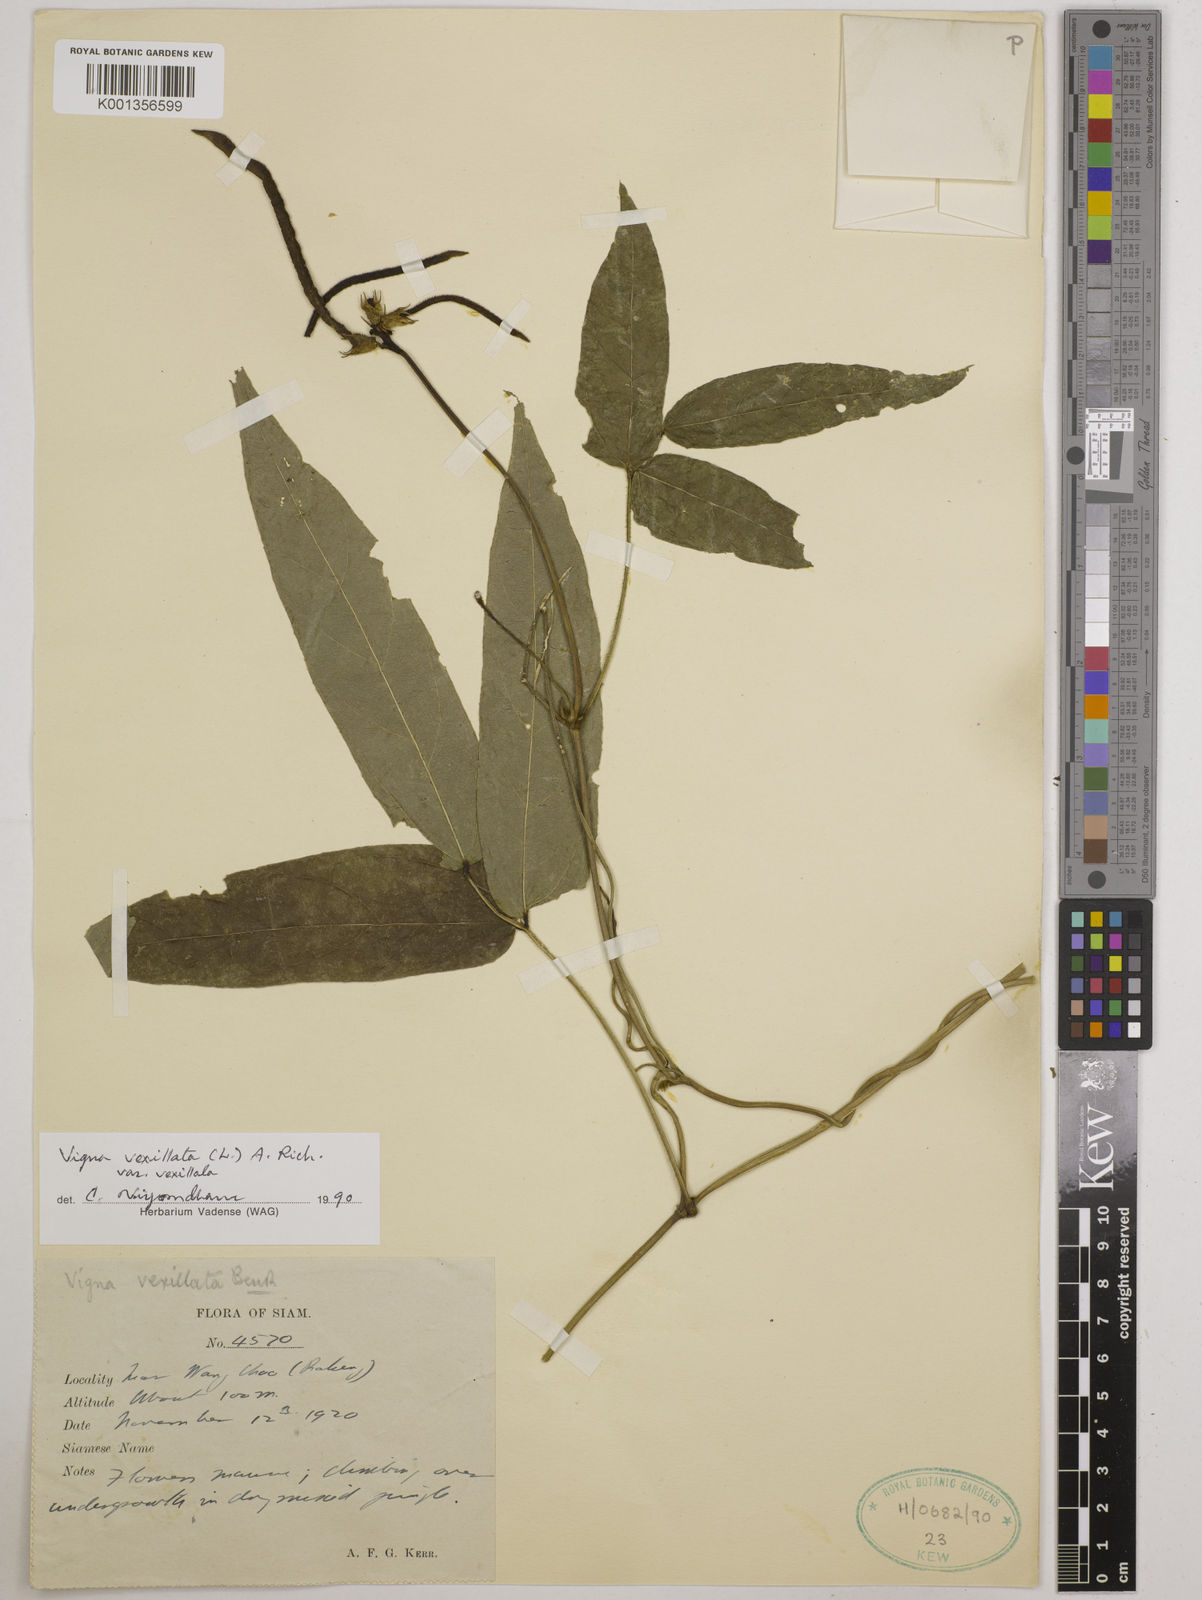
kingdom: Plantae
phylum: Tracheophyta
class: Magnoliopsida
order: Fabales
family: Fabaceae
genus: Vigna
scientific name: Vigna vexillata
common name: Zombi pea
